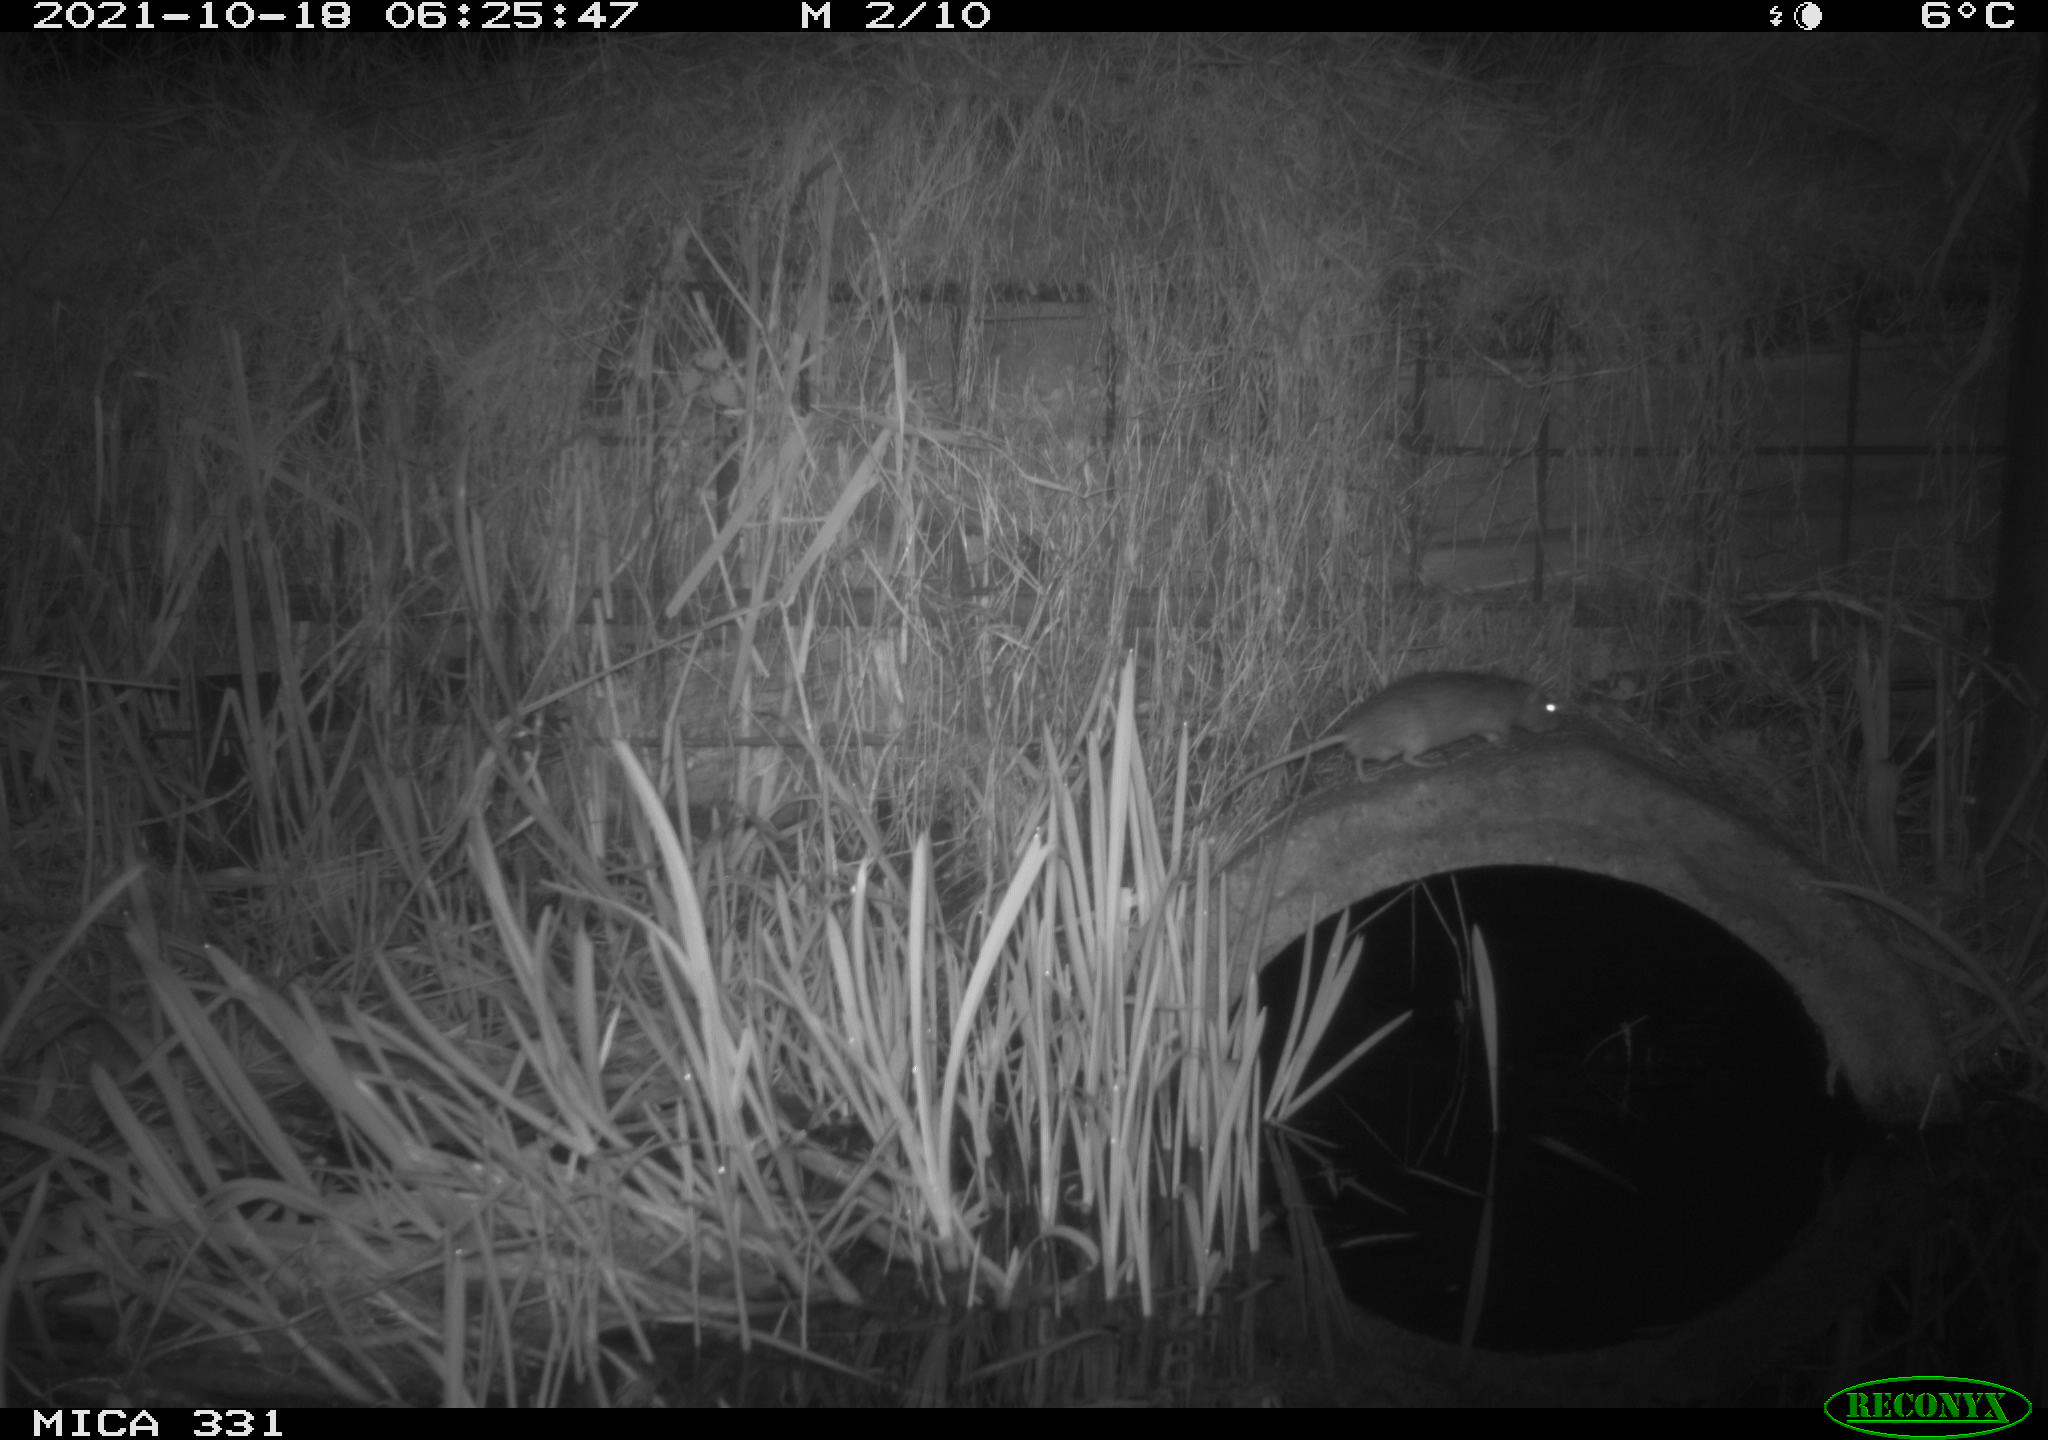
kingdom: Animalia
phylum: Chordata
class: Mammalia
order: Rodentia
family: Muridae
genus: Rattus
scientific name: Rattus norvegicus
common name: Brown rat
